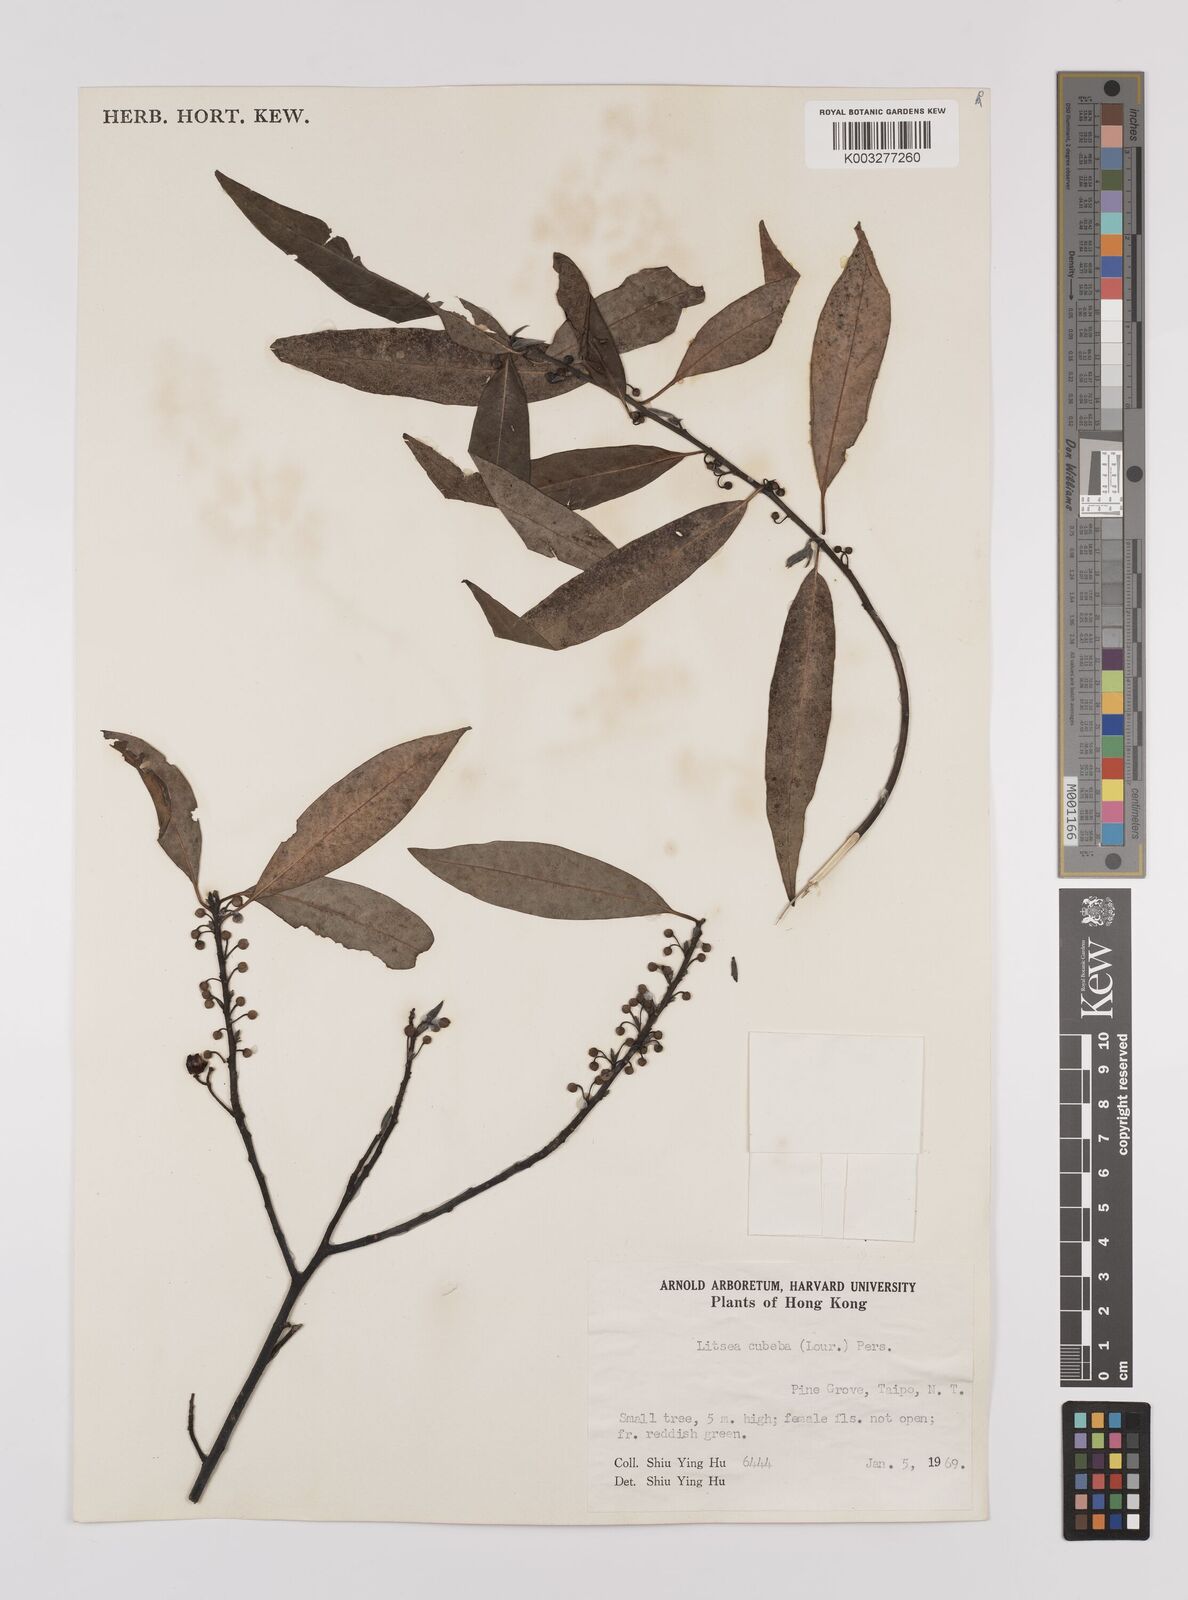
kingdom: Plantae
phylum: Tracheophyta
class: Magnoliopsida
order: Laurales
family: Lauraceae
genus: Litsea
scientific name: Litsea cubeba
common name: Mountain-pepper
